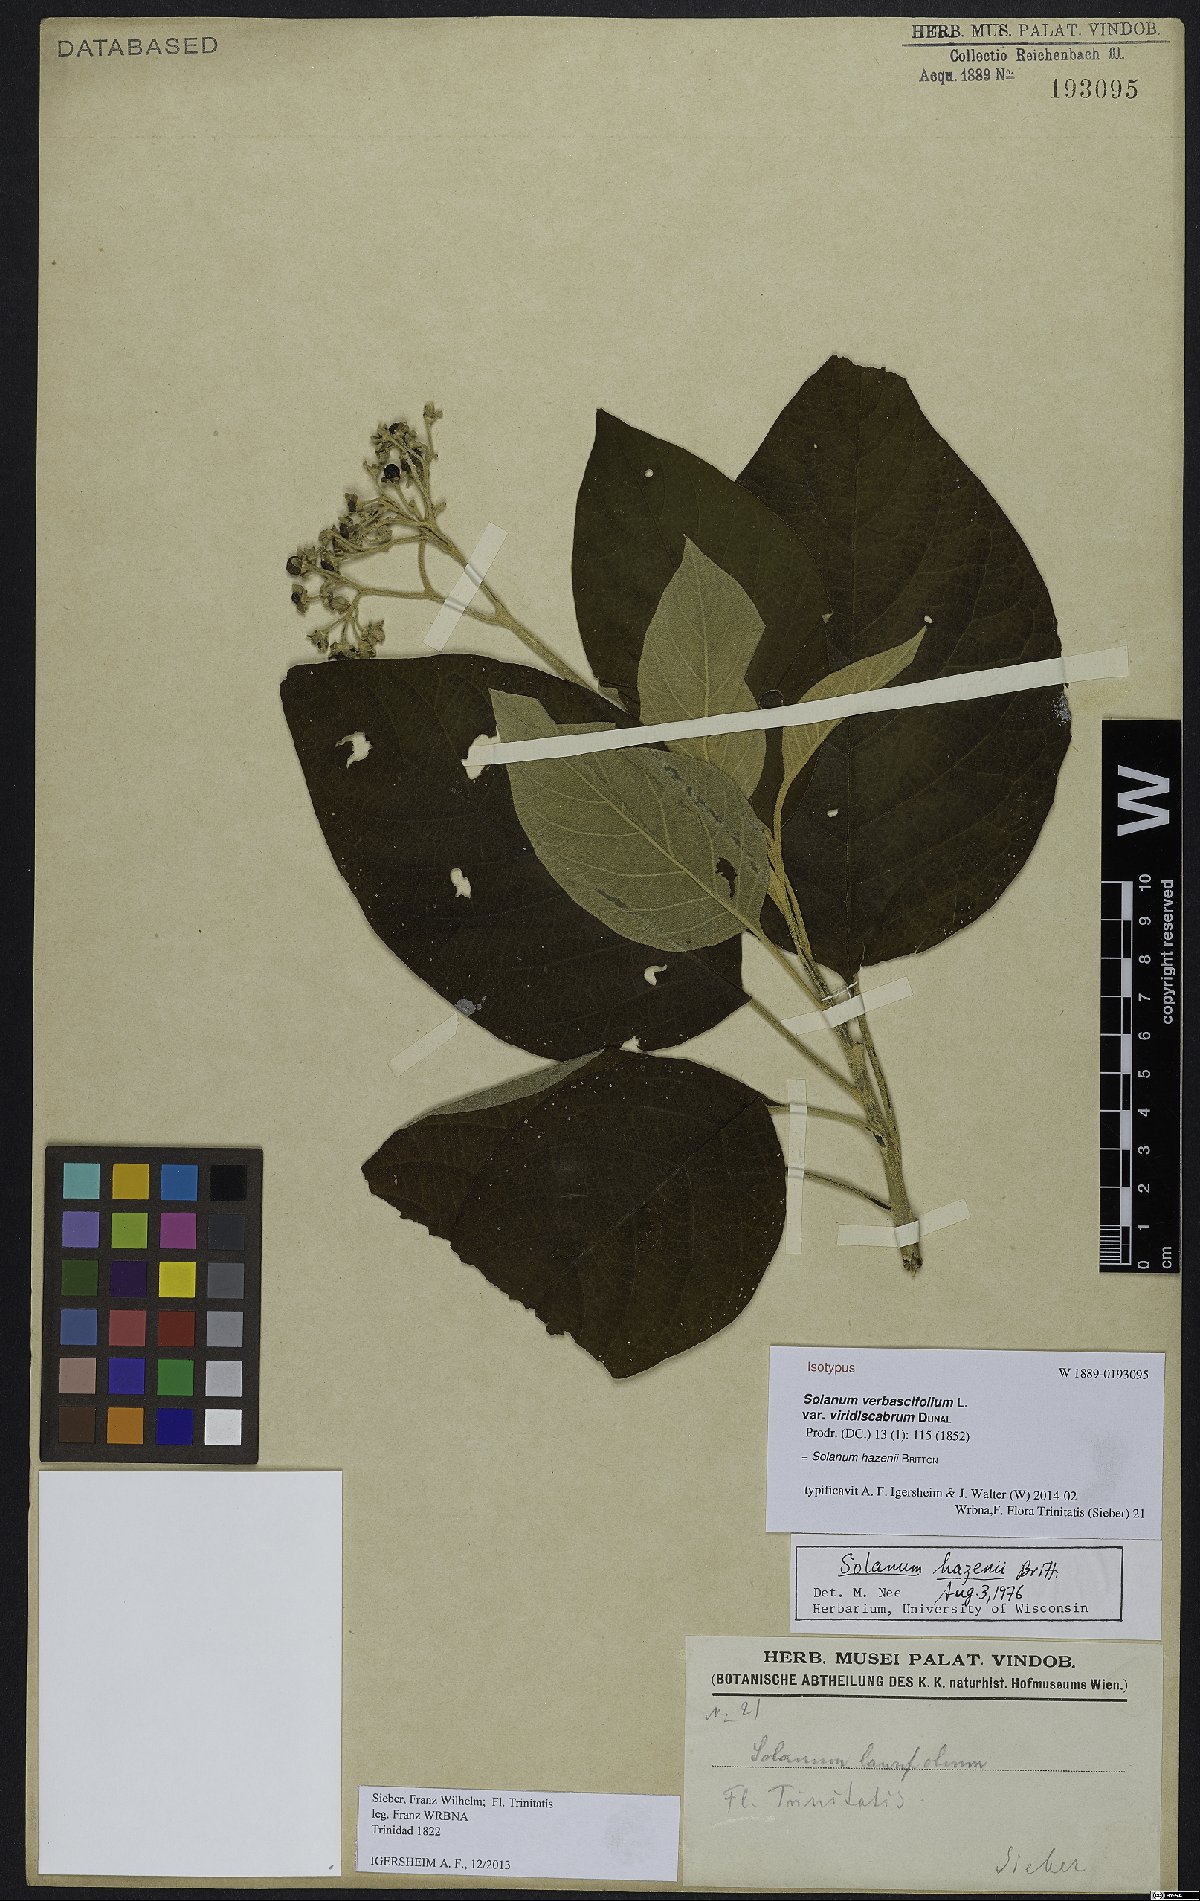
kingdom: Plantae
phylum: Tracheophyta
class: Magnoliopsida
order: Solanales
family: Solanaceae
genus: Solanum
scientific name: Solanum hazenii
